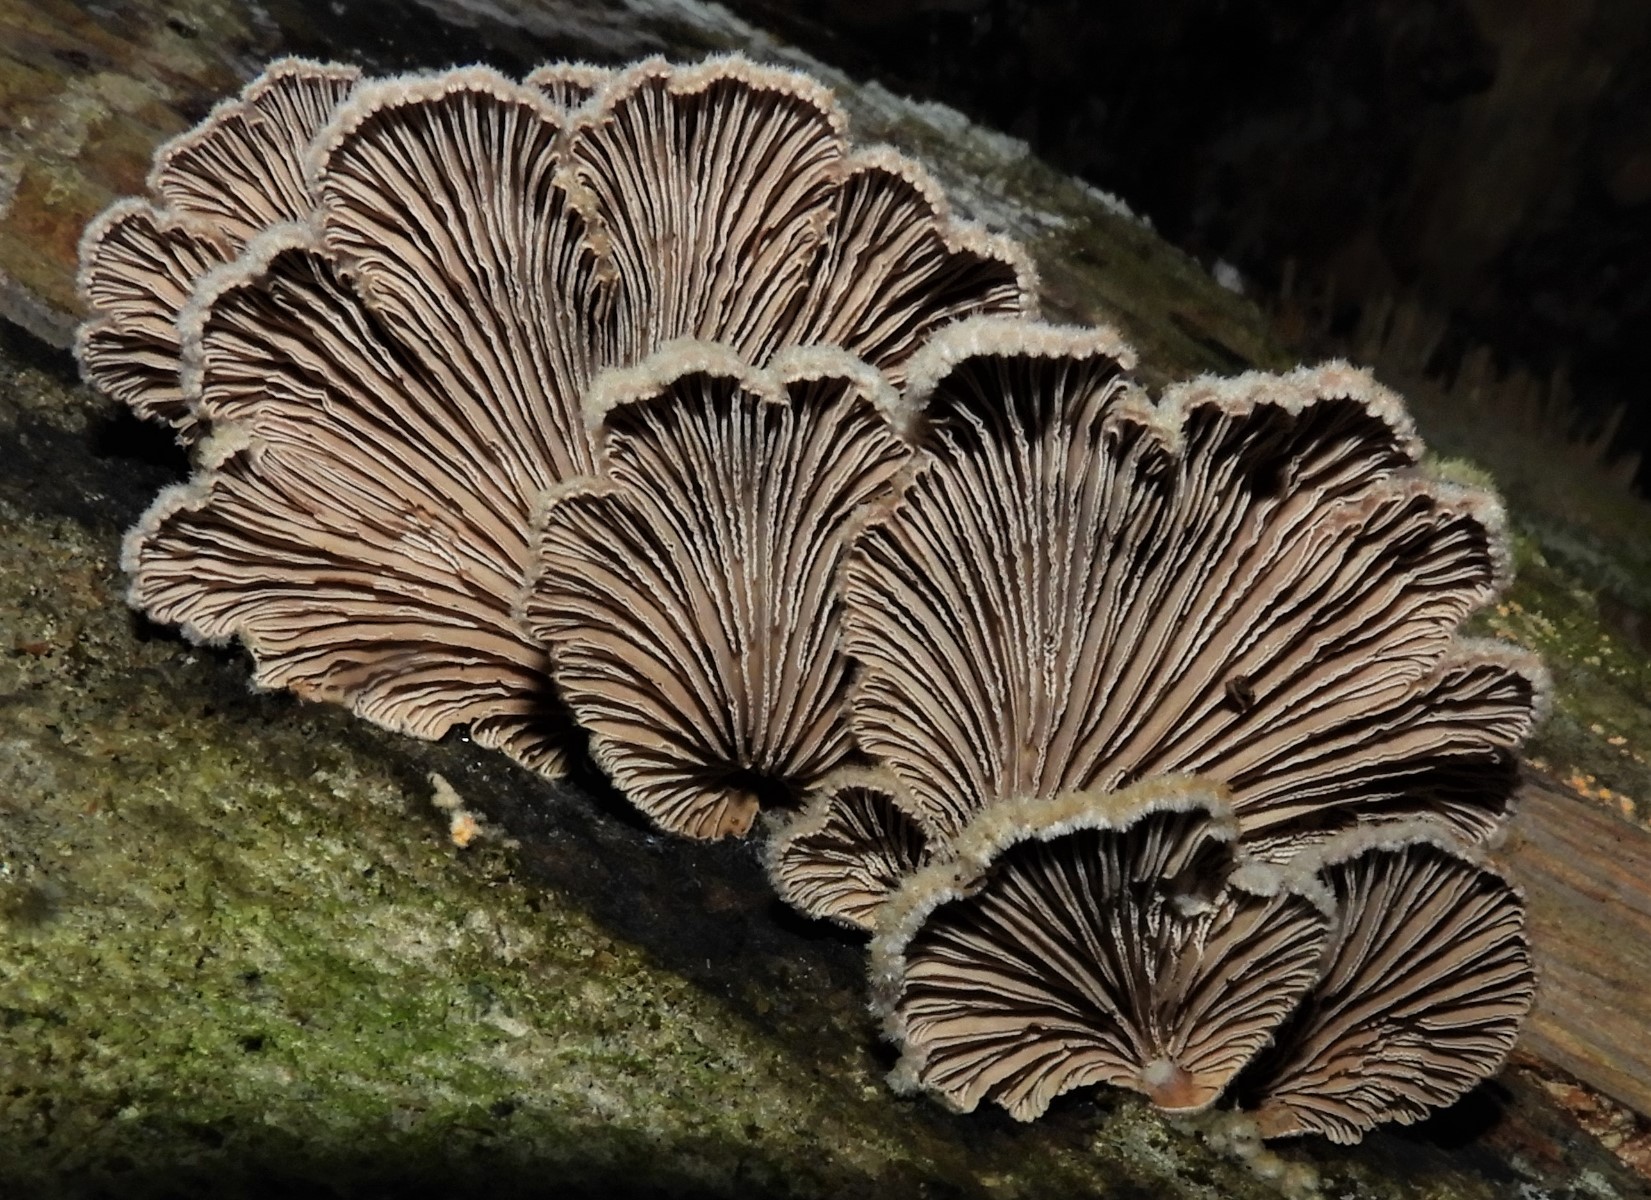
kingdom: Fungi
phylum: Basidiomycota
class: Agaricomycetes
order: Agaricales
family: Schizophyllaceae
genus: Schizophyllum
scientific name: Schizophyllum commune
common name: kløvblad
